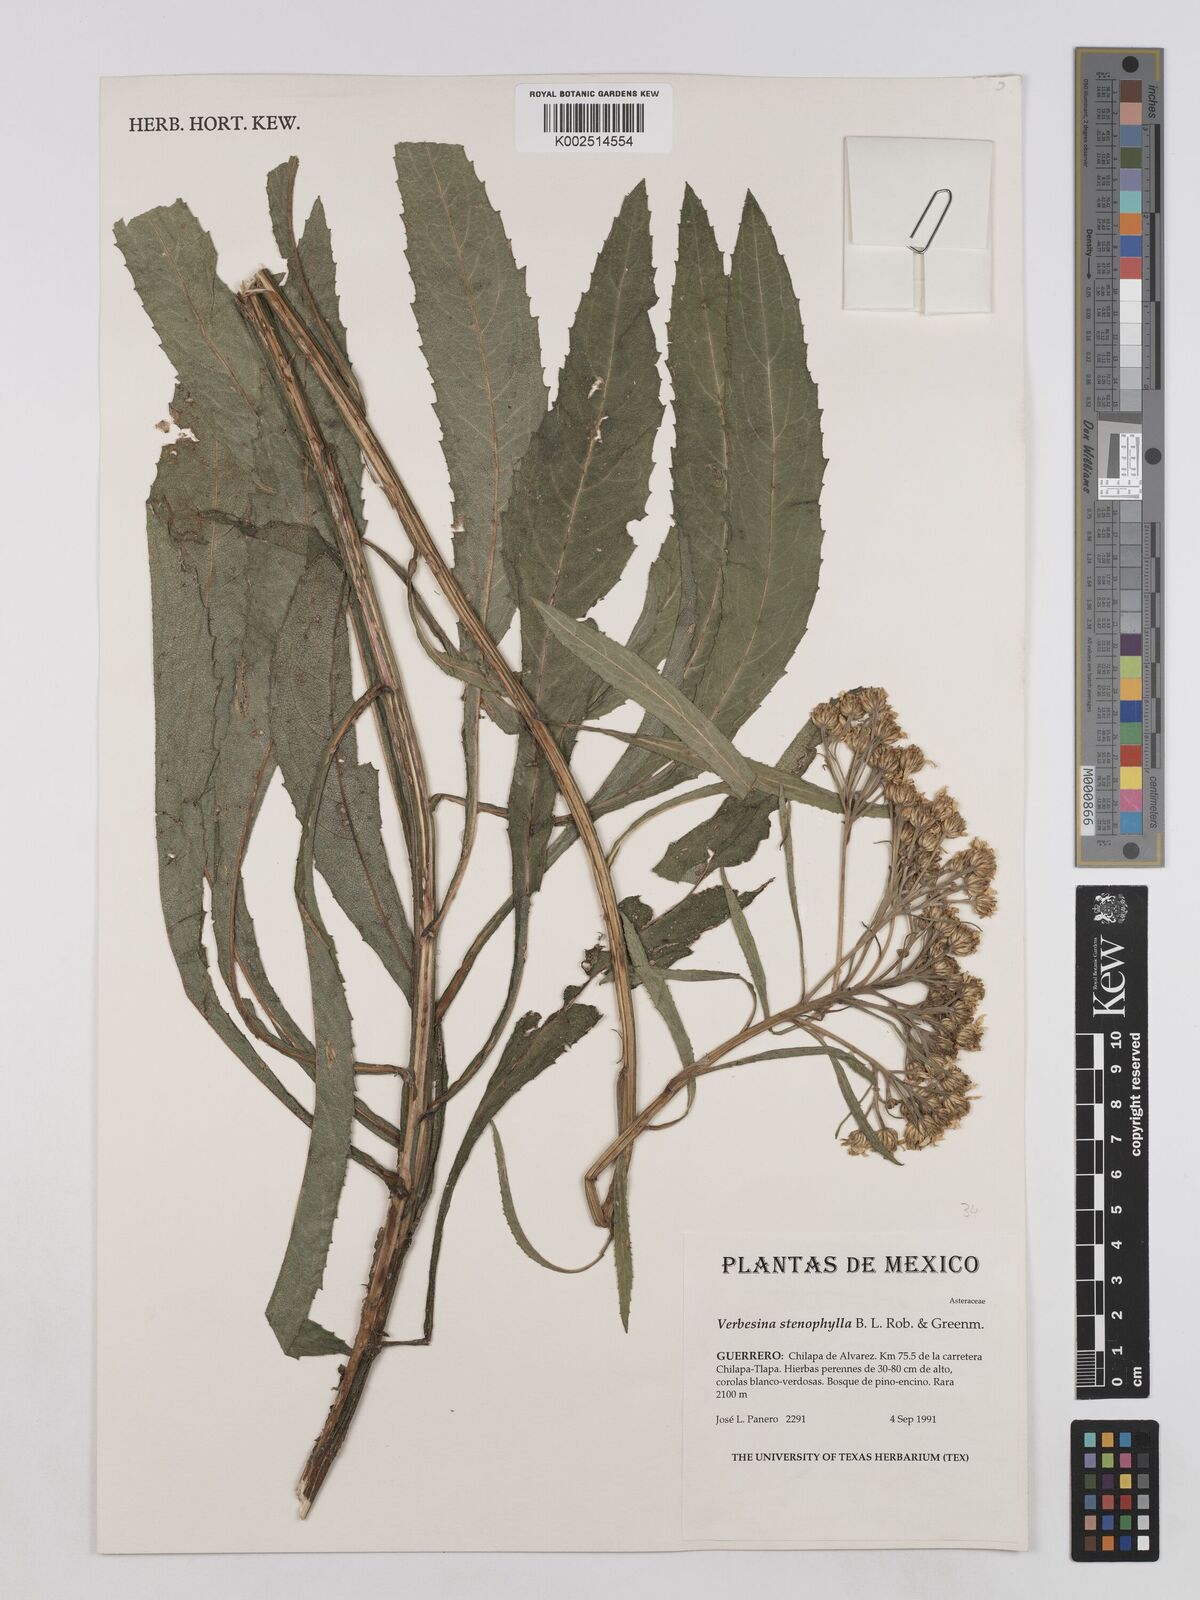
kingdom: Plantae
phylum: Tracheophyta
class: Magnoliopsida
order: Asterales
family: Asteraceae
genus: Verbesina
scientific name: Verbesina stenophylla
